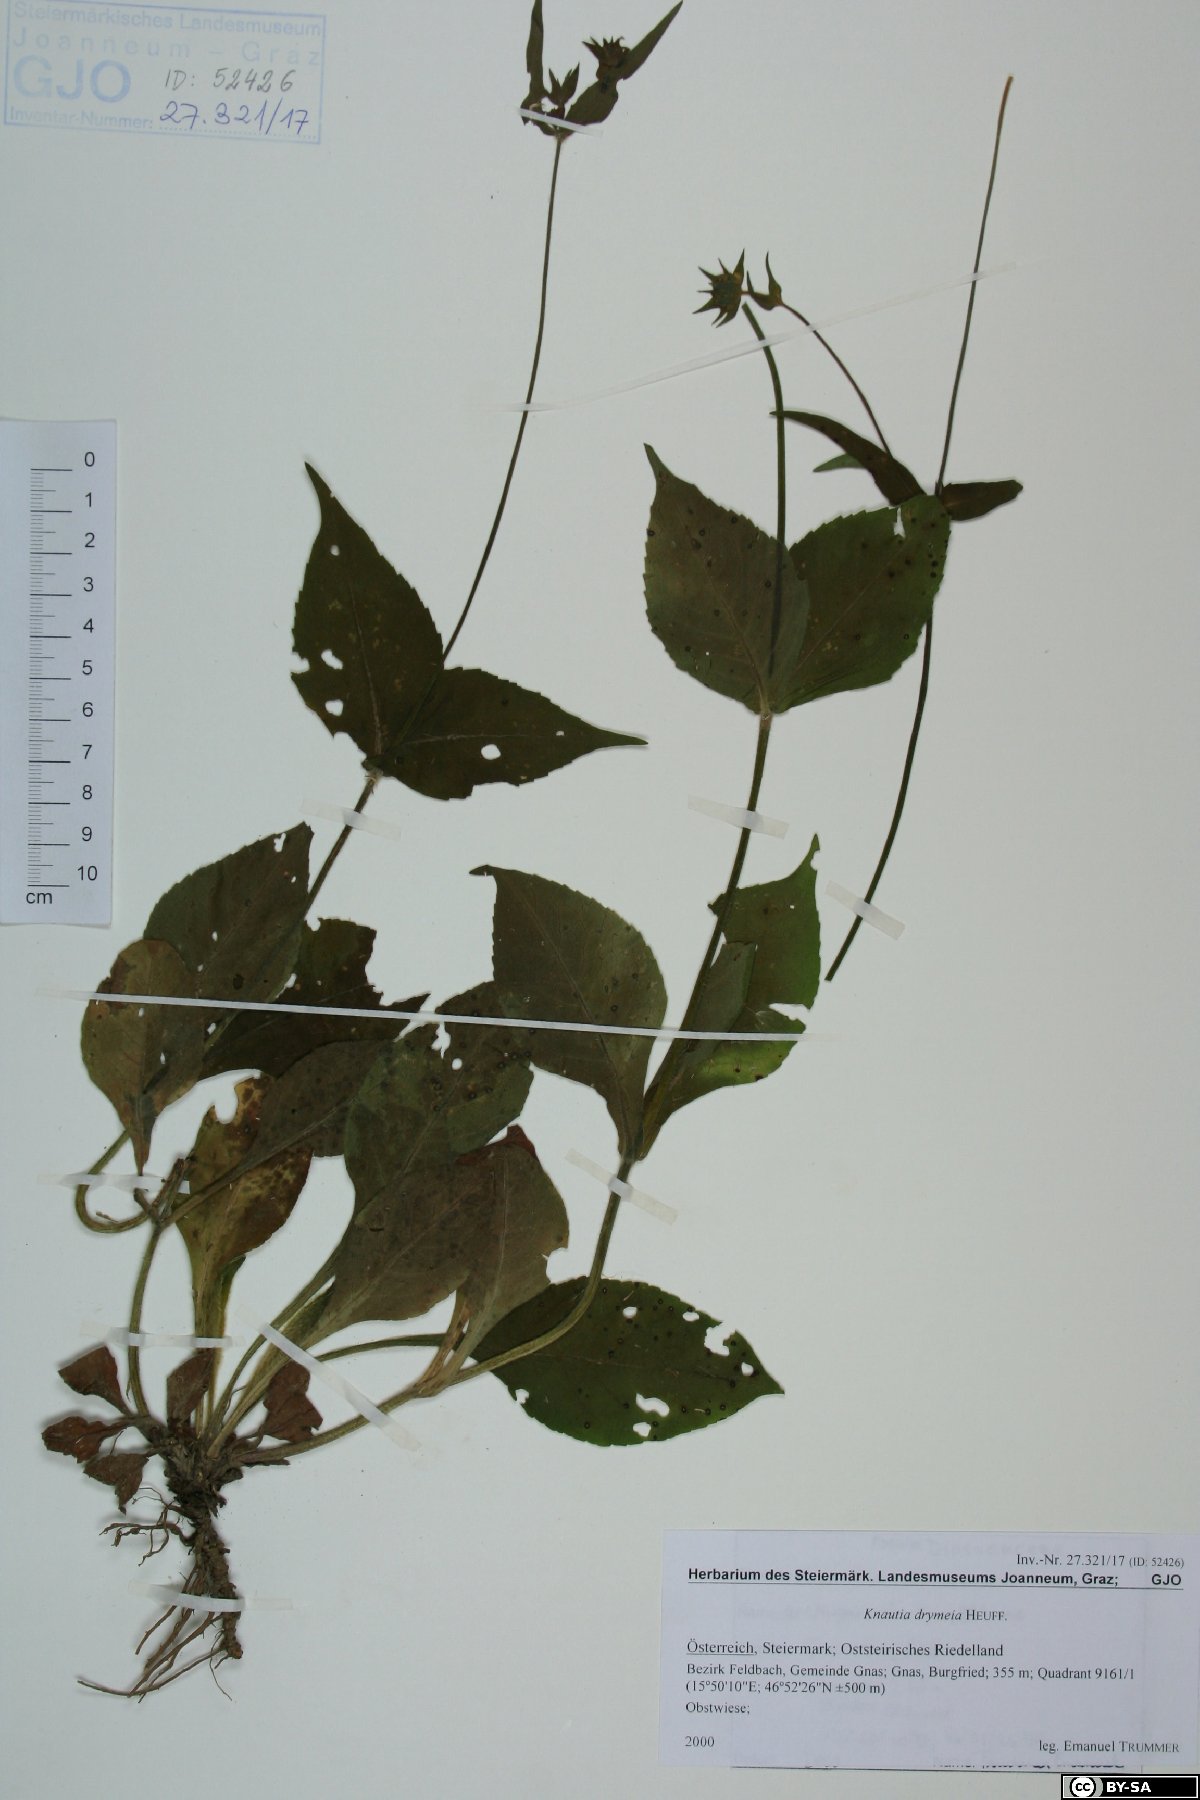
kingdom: Plantae
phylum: Tracheophyta
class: Magnoliopsida
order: Dipsacales
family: Caprifoliaceae
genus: Knautia
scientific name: Knautia drymeia
